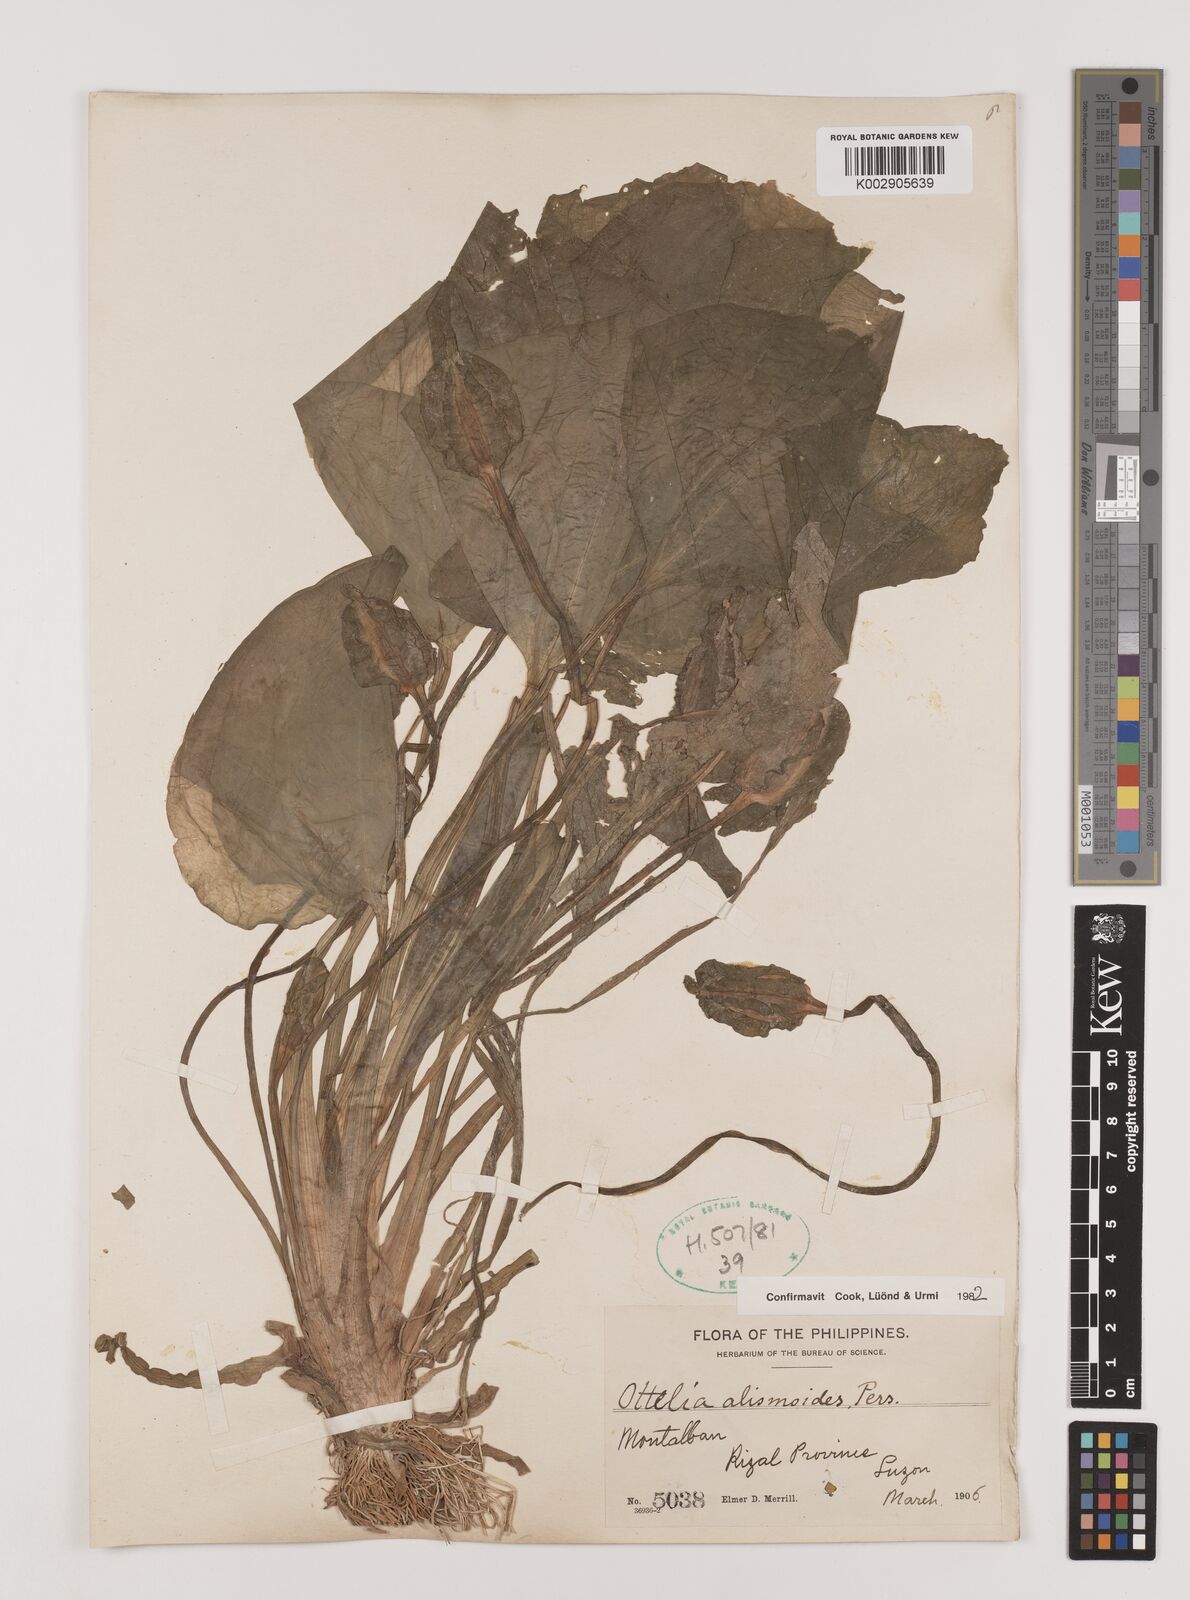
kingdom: Plantae
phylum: Tracheophyta
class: Liliopsida
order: Alismatales
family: Hydrocharitaceae
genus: Ottelia
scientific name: Ottelia alismoides
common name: Duck-lettuce
